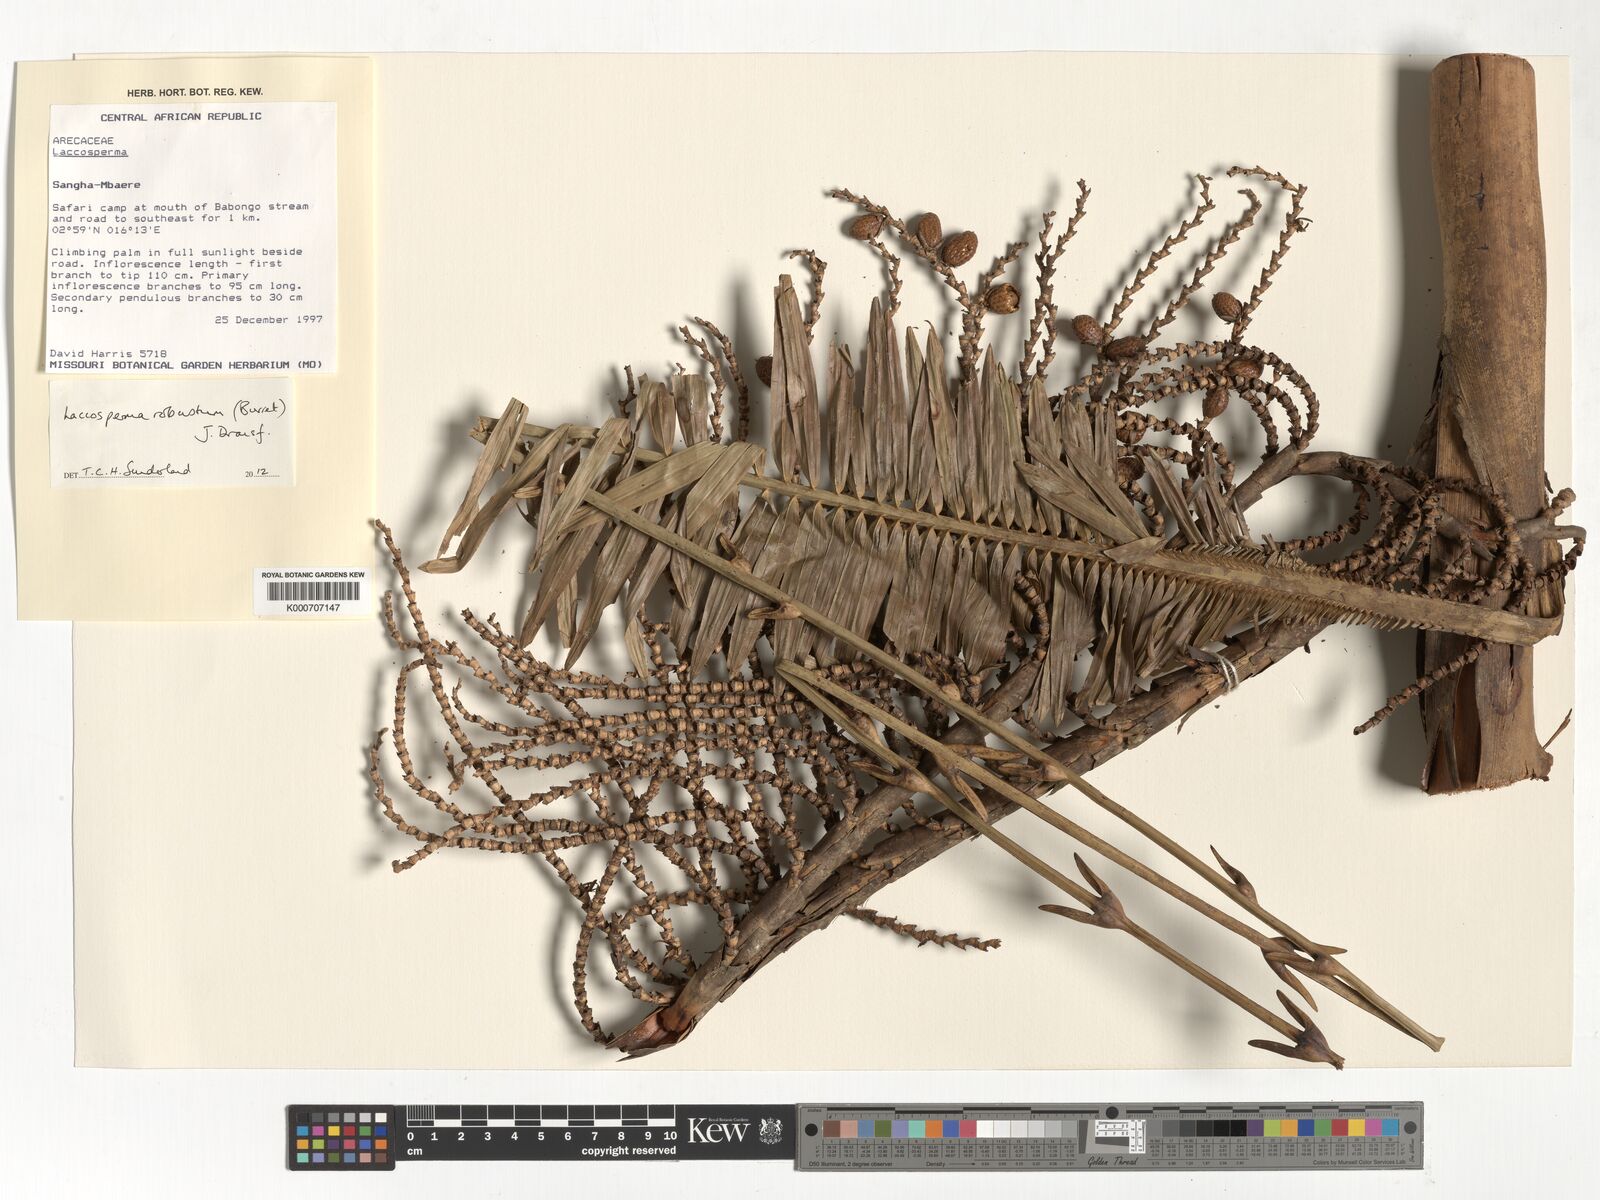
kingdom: Plantae
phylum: Tracheophyta
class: Liliopsida
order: Arecales
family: Arecaceae
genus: Laccosperma
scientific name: Laccosperma robustum
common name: Rattan
